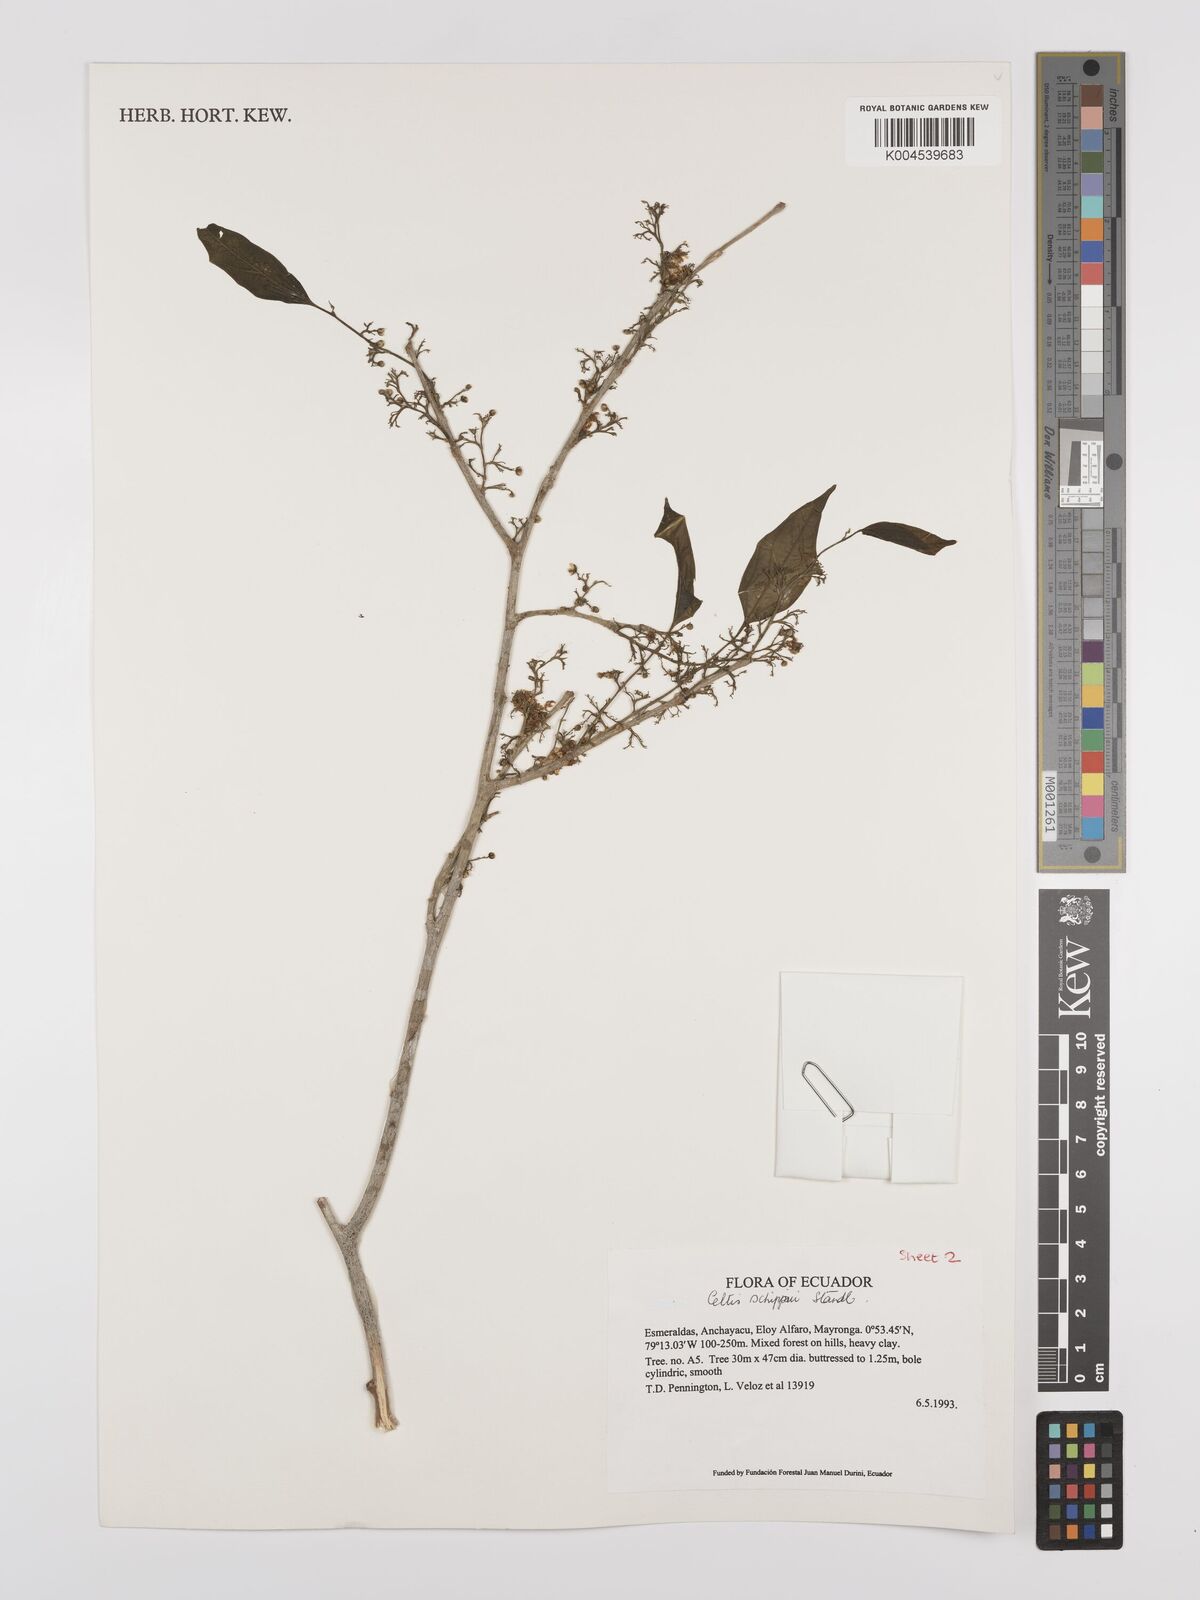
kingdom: Plantae
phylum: Tracheophyta
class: Magnoliopsida
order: Rosales
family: Cannabaceae
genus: Celtis
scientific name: Celtis schippii
